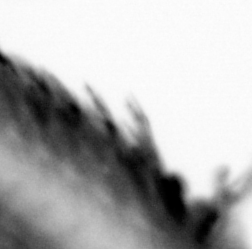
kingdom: Animalia
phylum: Arthropoda
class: Copepoda
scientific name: Copepoda
